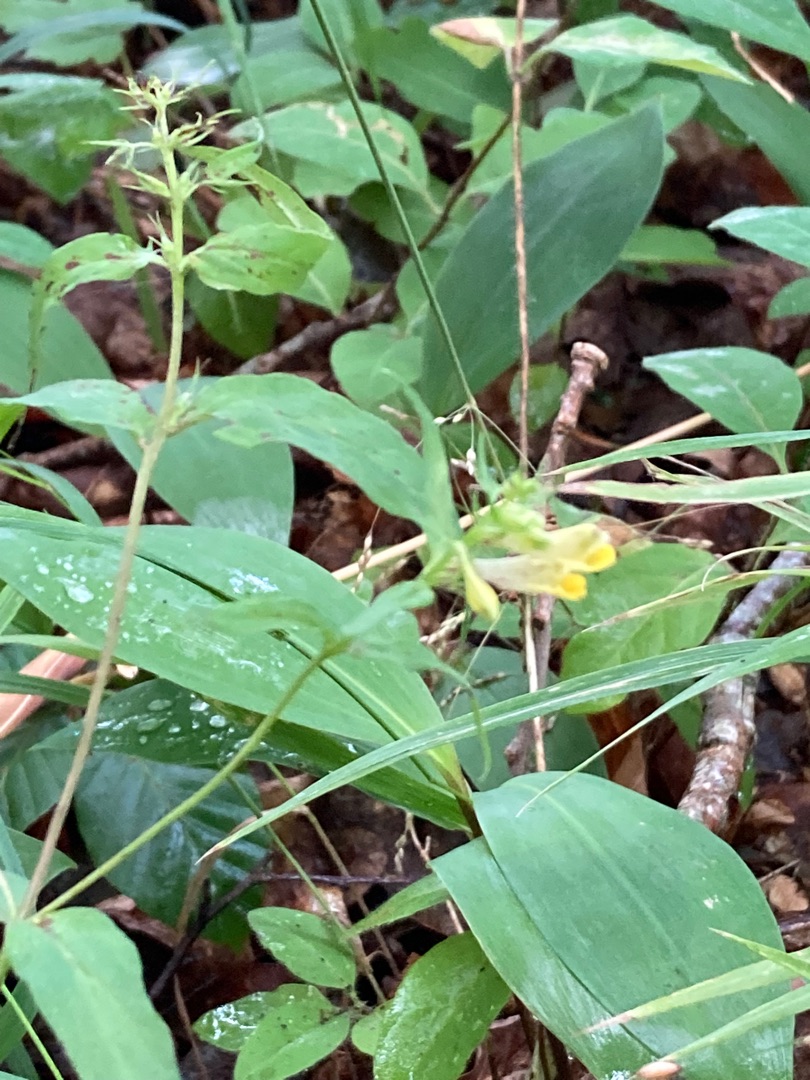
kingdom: Plantae
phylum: Tracheophyta
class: Magnoliopsida
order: Lamiales
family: Orobanchaceae
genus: Melampyrum
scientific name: Melampyrum pratense
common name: Almindelig kohvede
